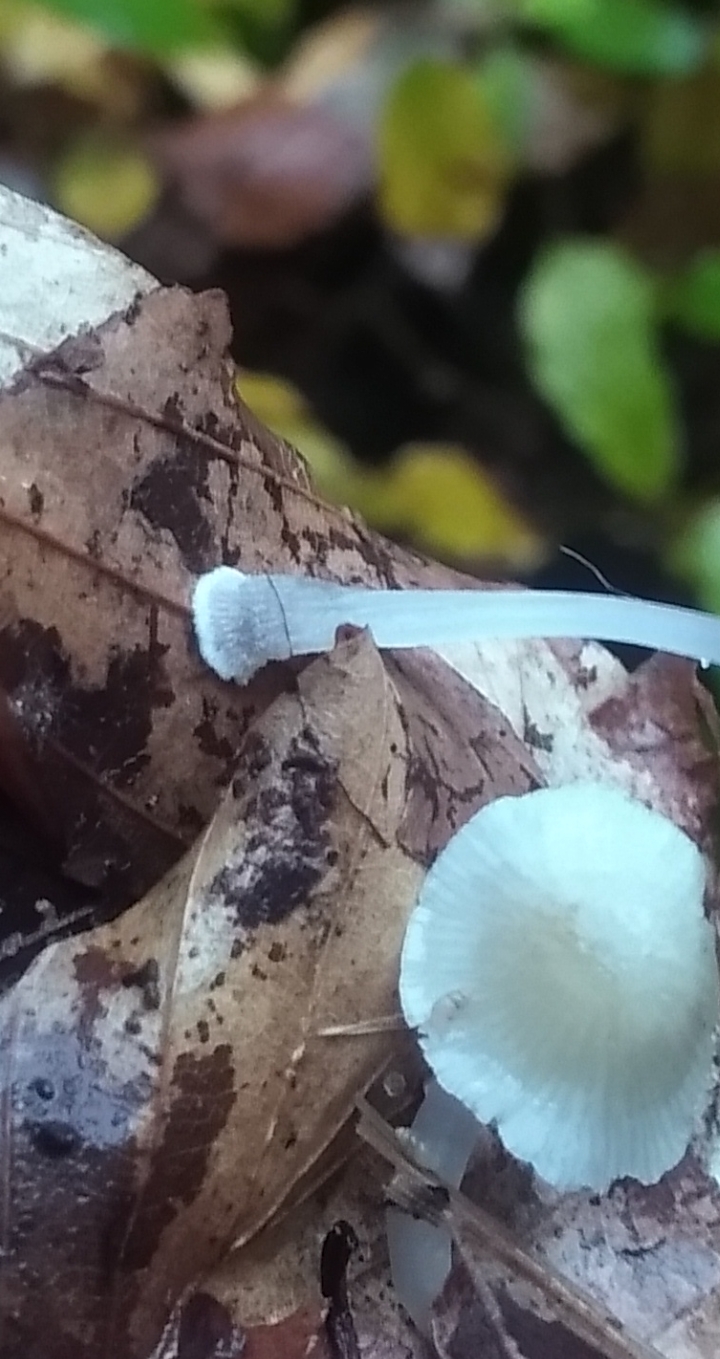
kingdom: Fungi
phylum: Basidiomycota
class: Agaricomycetes
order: Agaricales
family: Mycenaceae
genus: Mycena
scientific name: Mycena stylobates
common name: fureskivet huesvamp
